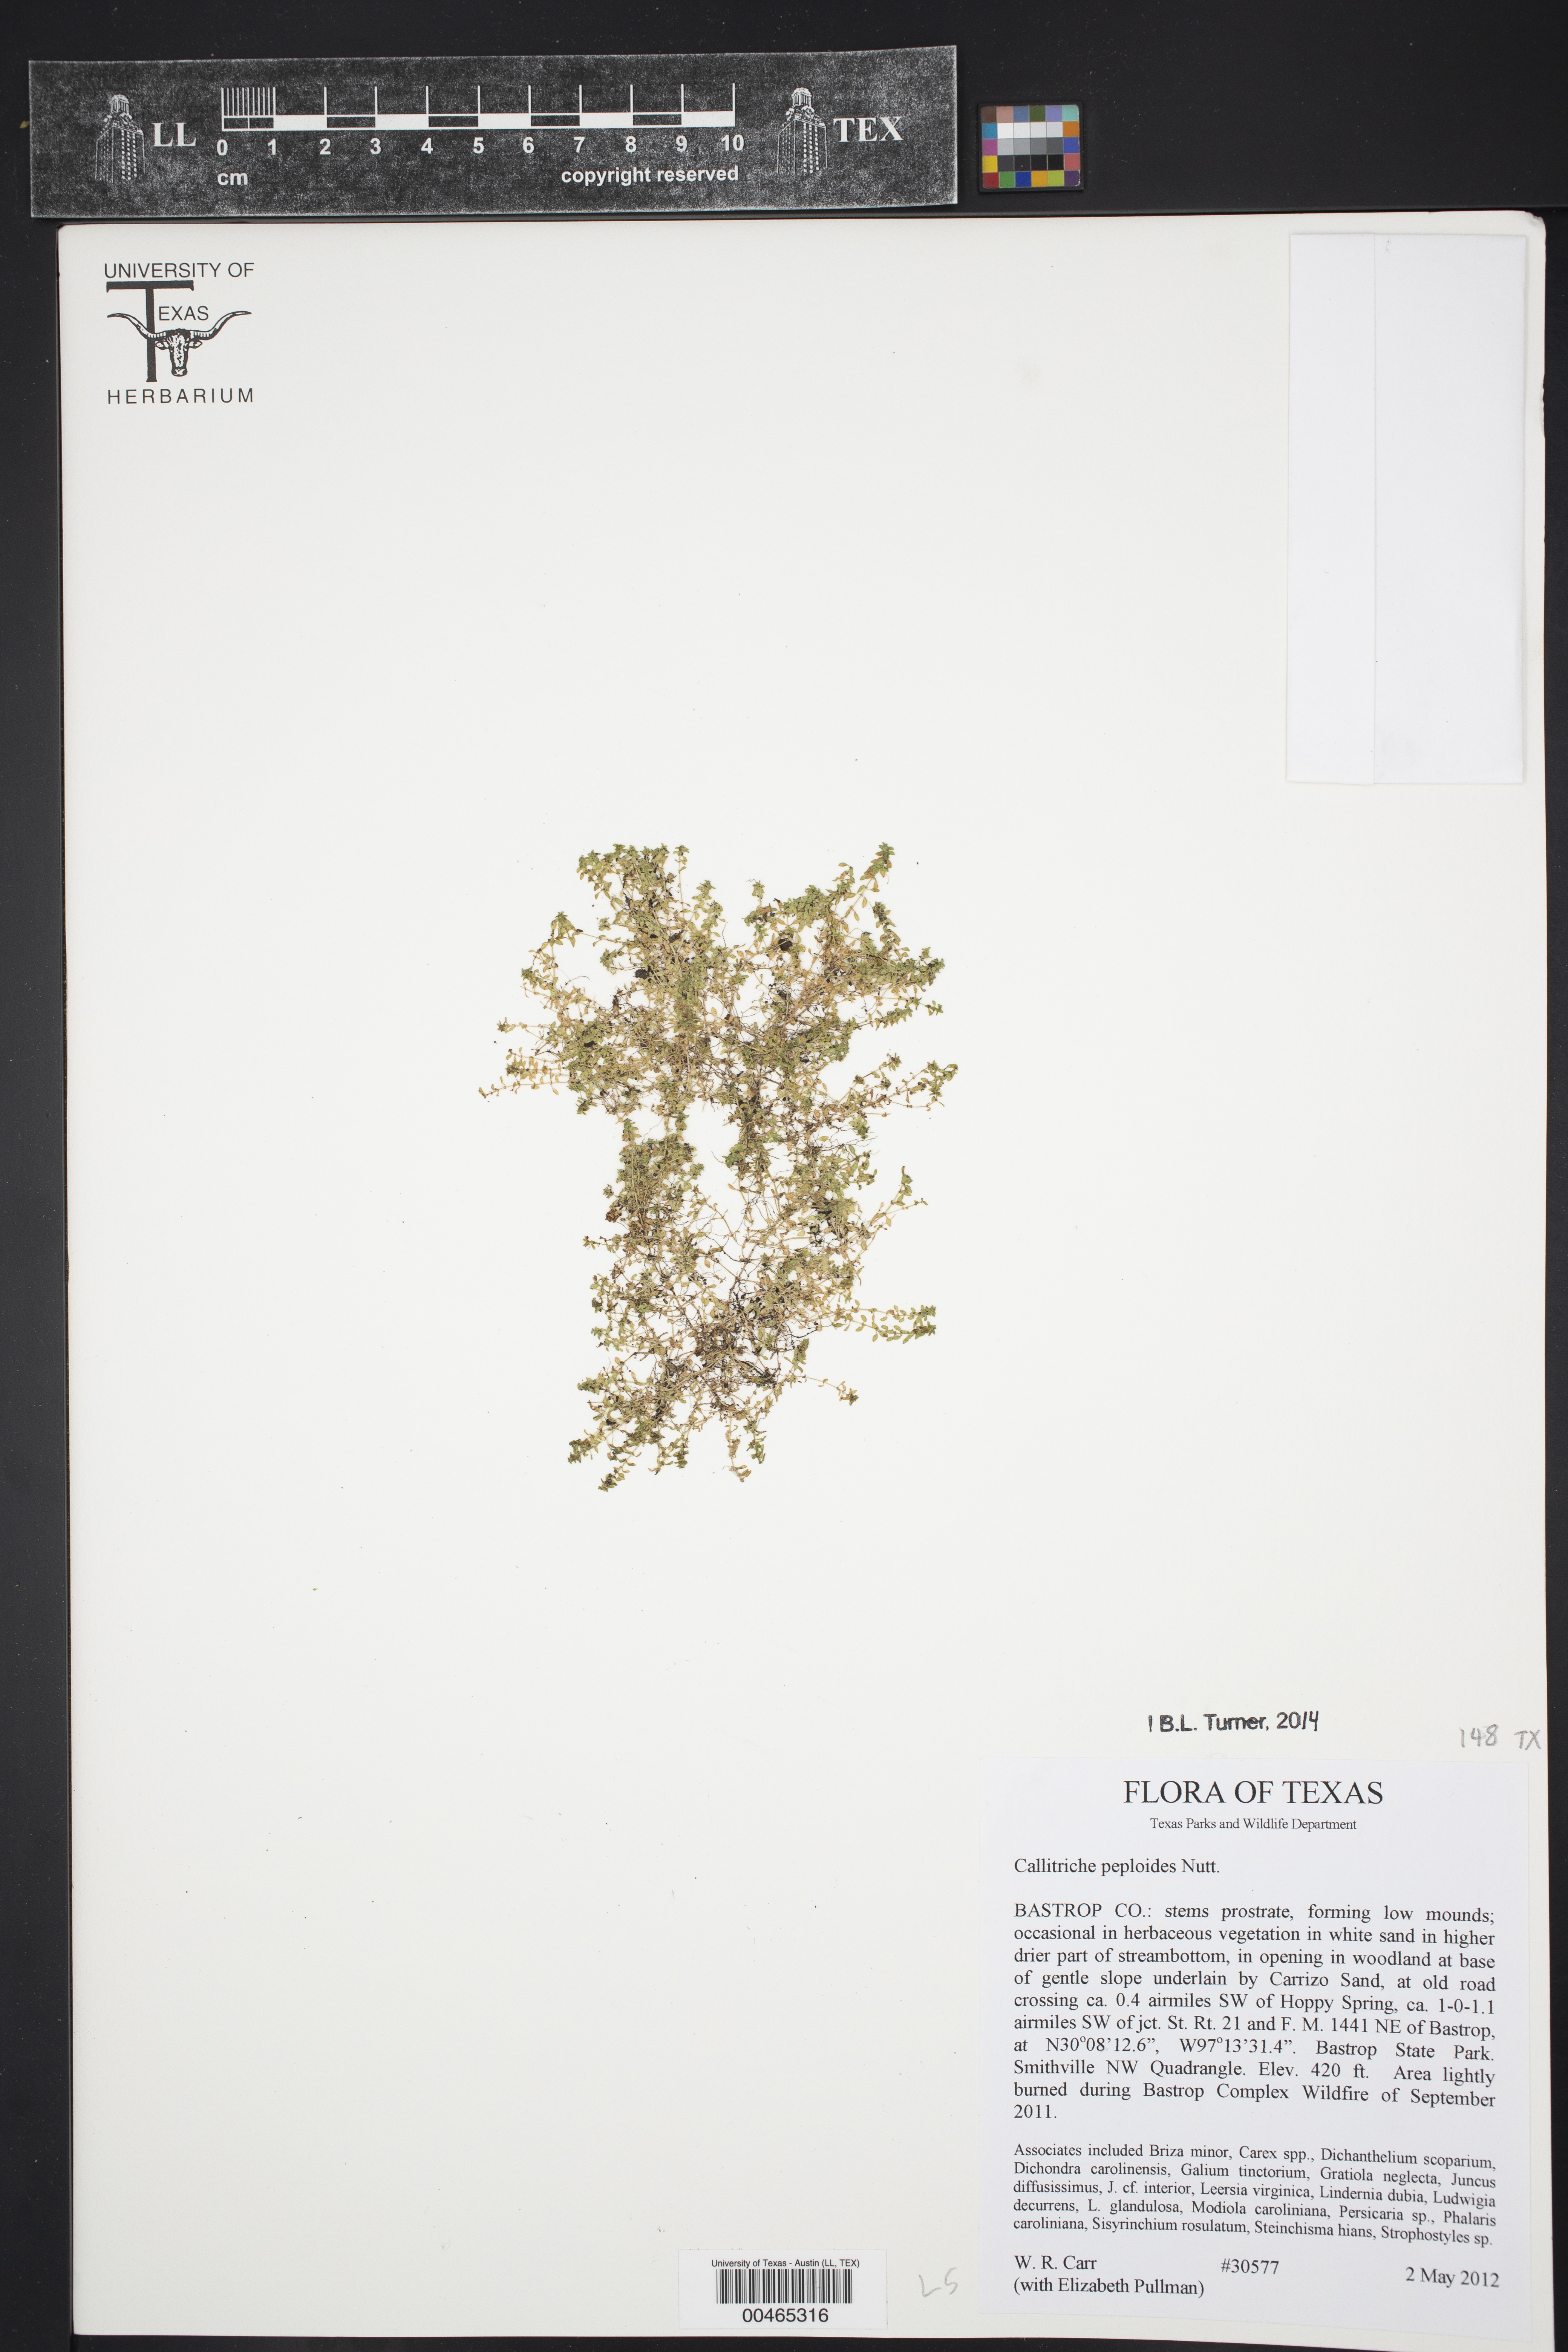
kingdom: Plantae
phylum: Tracheophyta
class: Magnoliopsida
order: Lamiales
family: Plantaginaceae
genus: Callitriche
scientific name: Callitriche peploides
